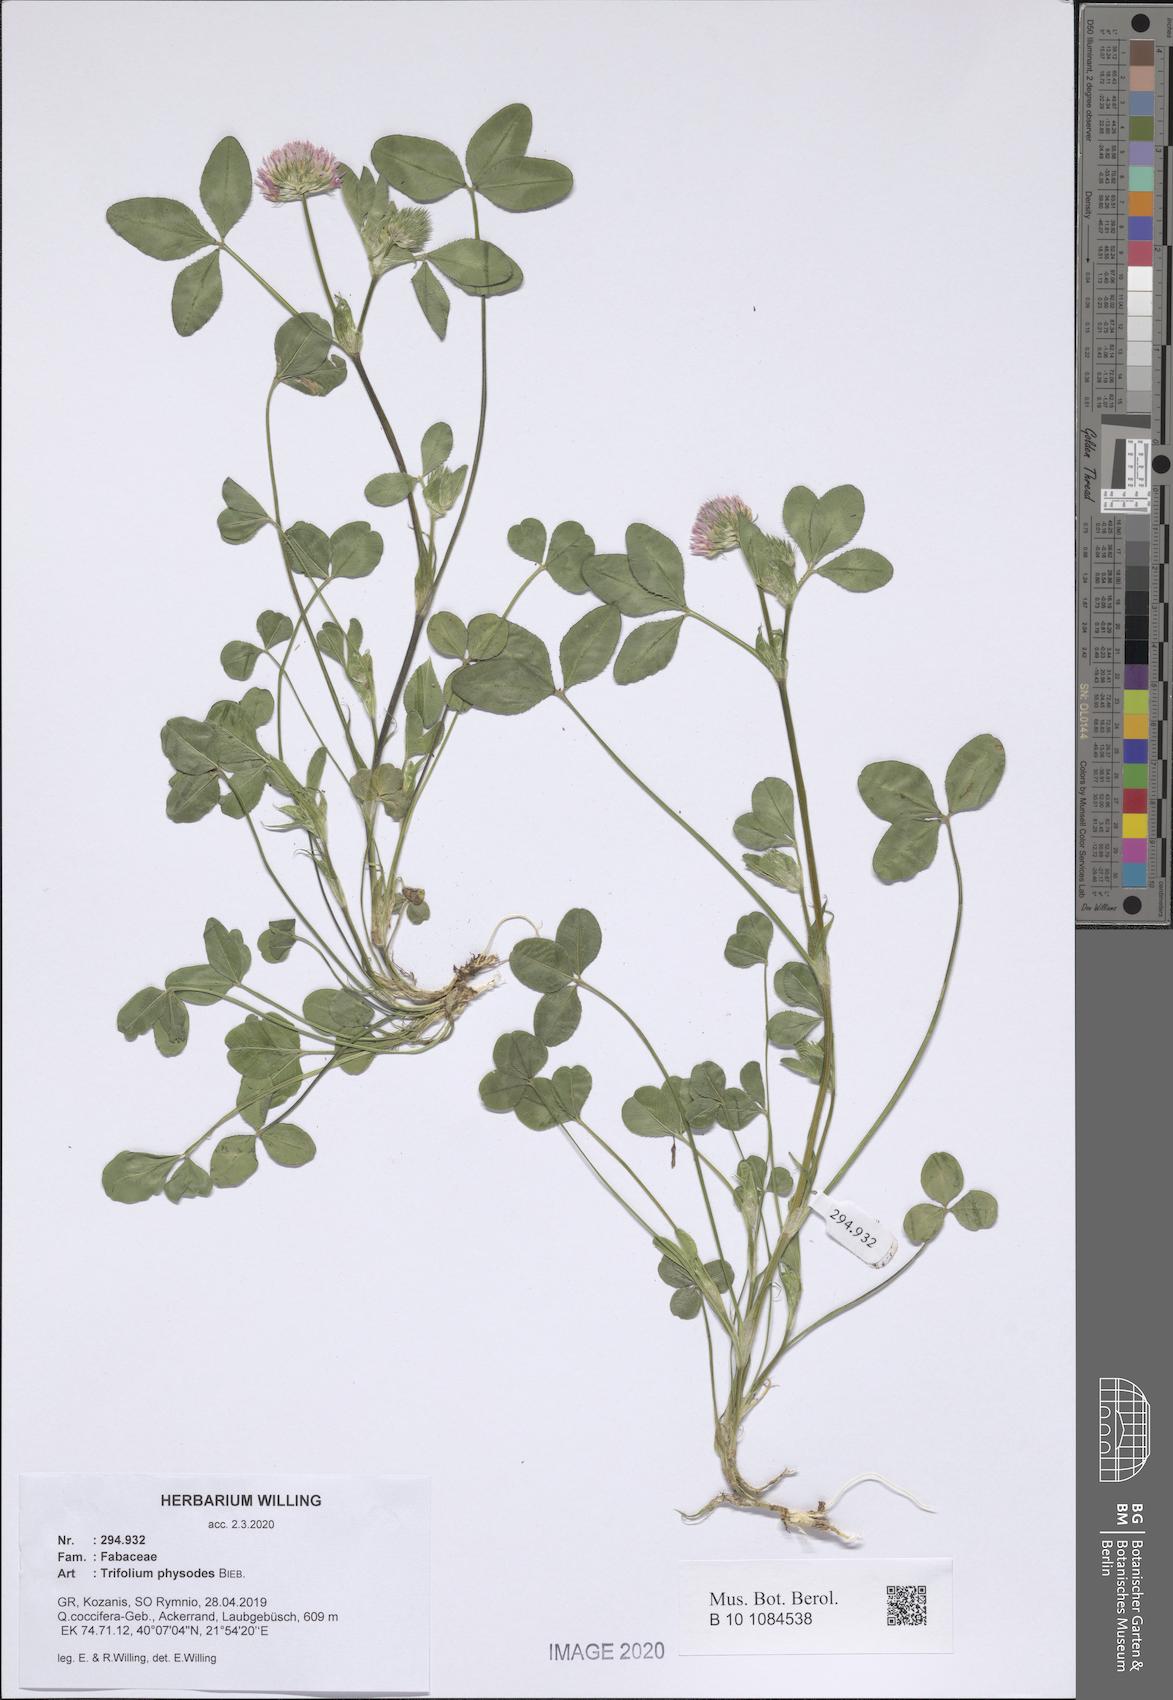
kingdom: Plantae
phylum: Tracheophyta
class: Magnoliopsida
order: Fabales
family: Fabaceae
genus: Trifolium
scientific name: Trifolium physodes
